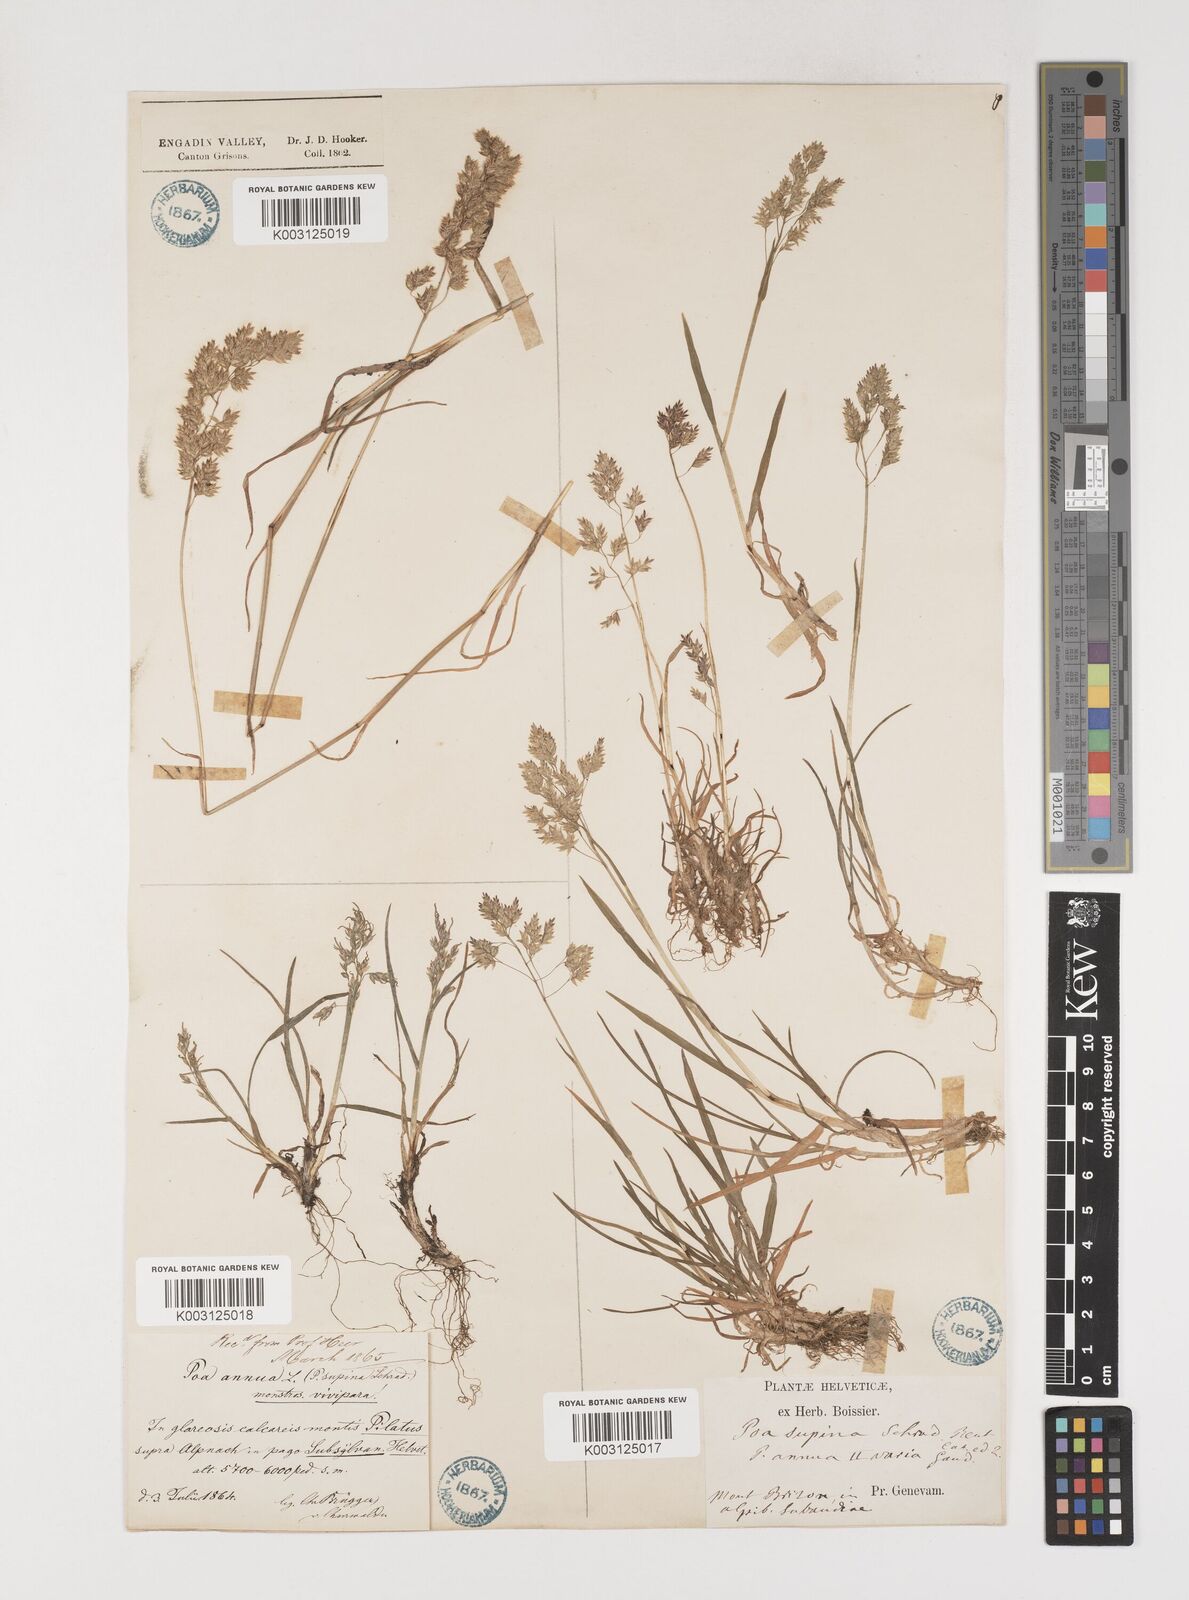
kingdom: Plantae
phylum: Tracheophyta
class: Liliopsida
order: Poales
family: Poaceae
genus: Poa
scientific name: Poa supina
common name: Supina bluegrass
